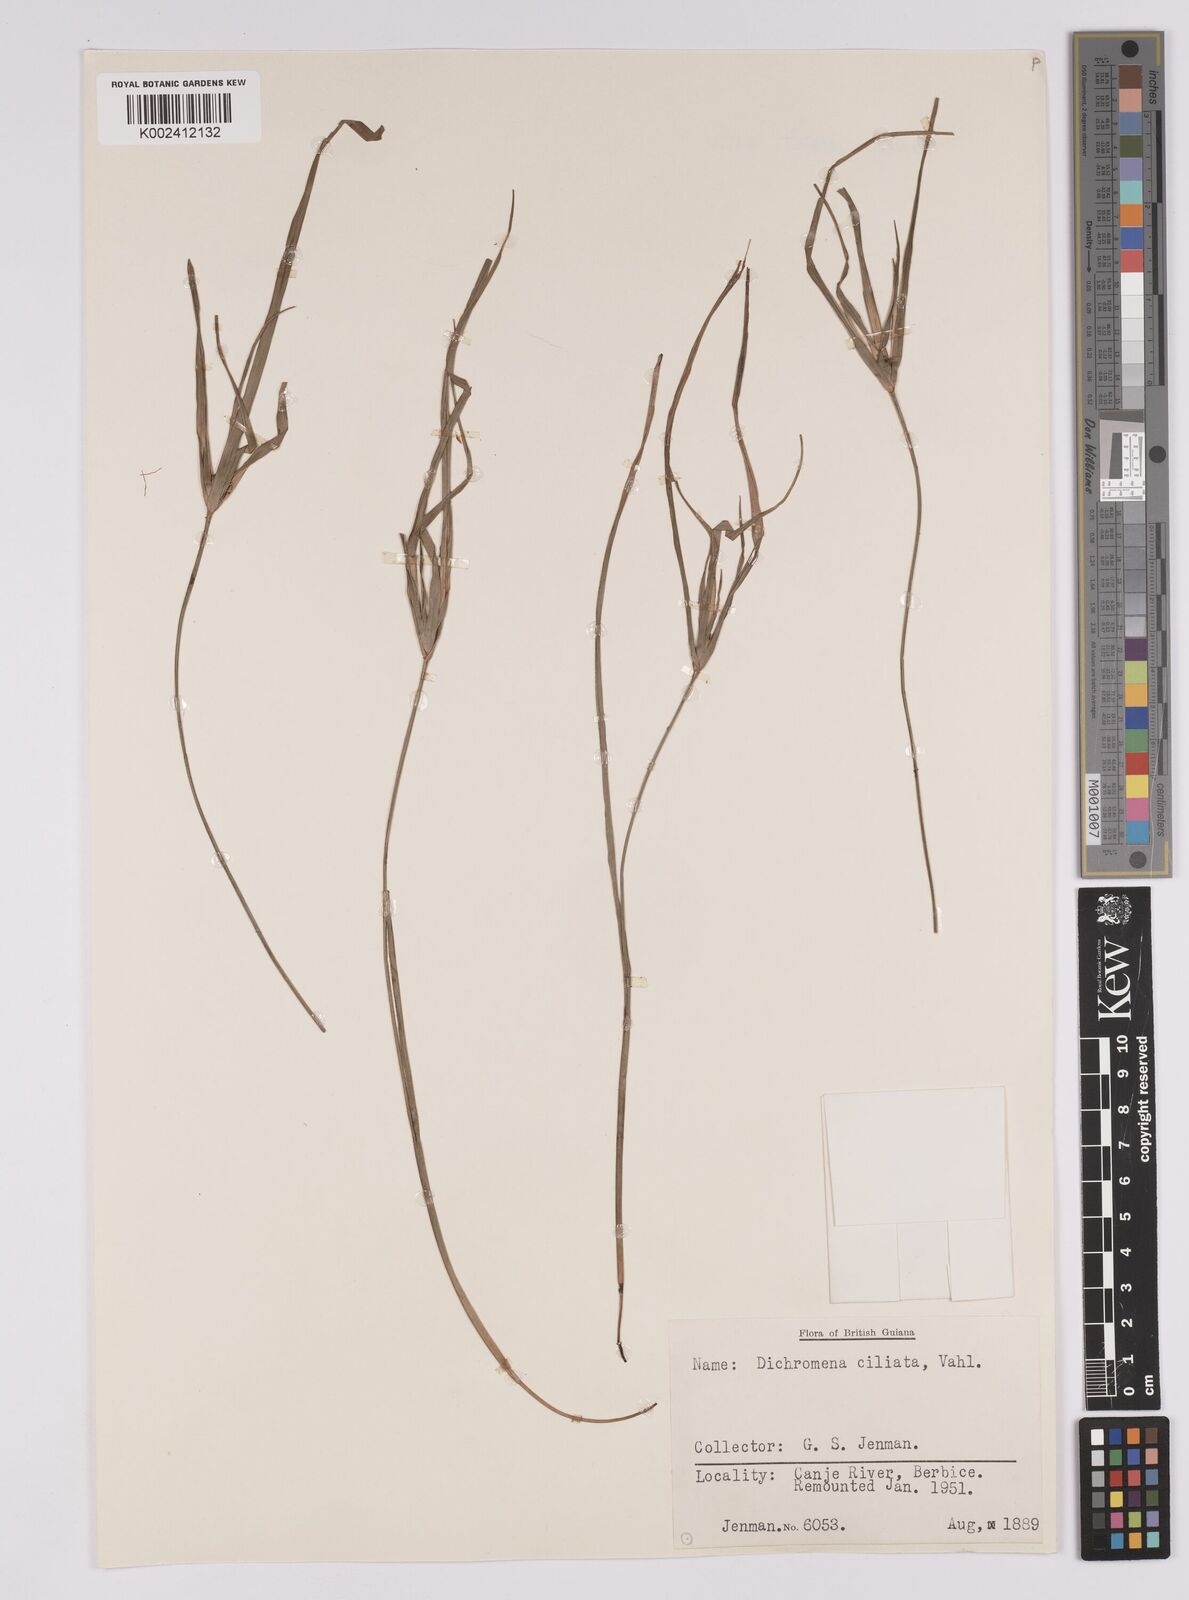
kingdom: Plantae
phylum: Tracheophyta
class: Liliopsida
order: Poales
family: Cyperaceae
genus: Rhynchospora
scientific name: Rhynchospora pura
